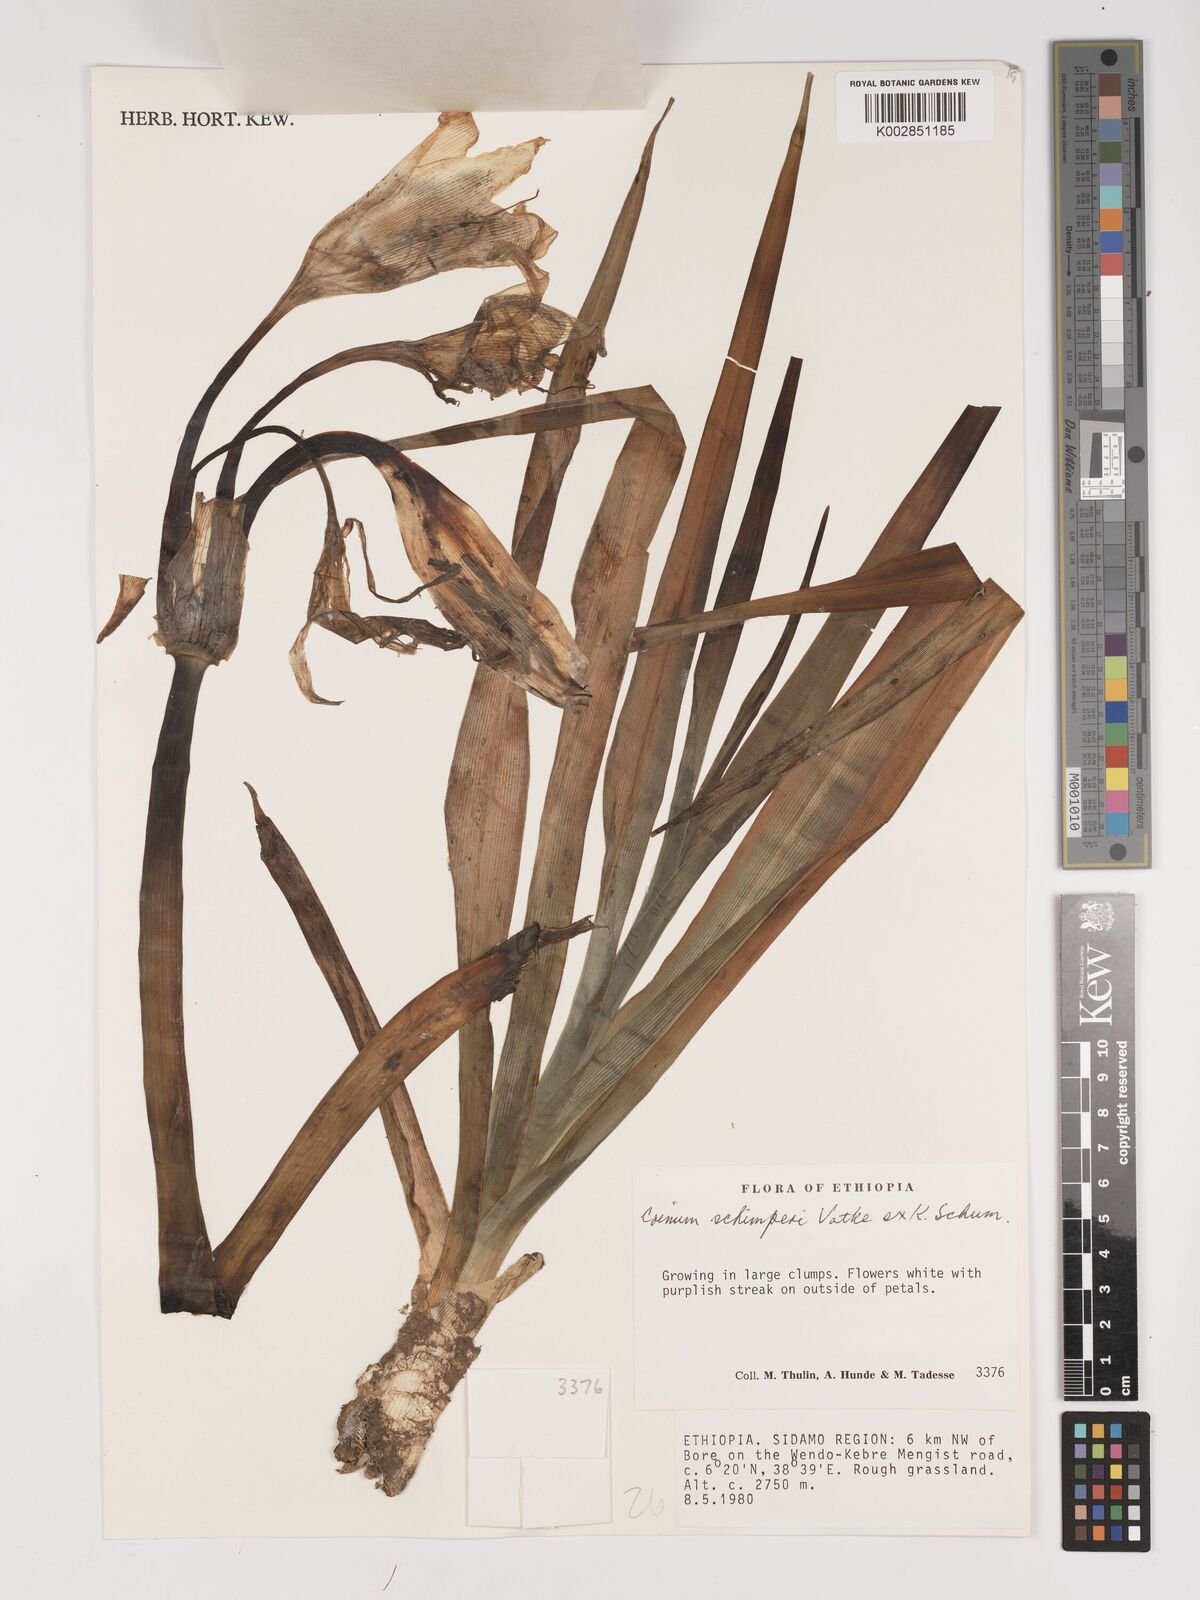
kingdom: Plantae
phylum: Tracheophyta
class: Liliopsida
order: Asparagales
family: Amaryllidaceae
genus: Crinum
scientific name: Crinum abyssinicum
